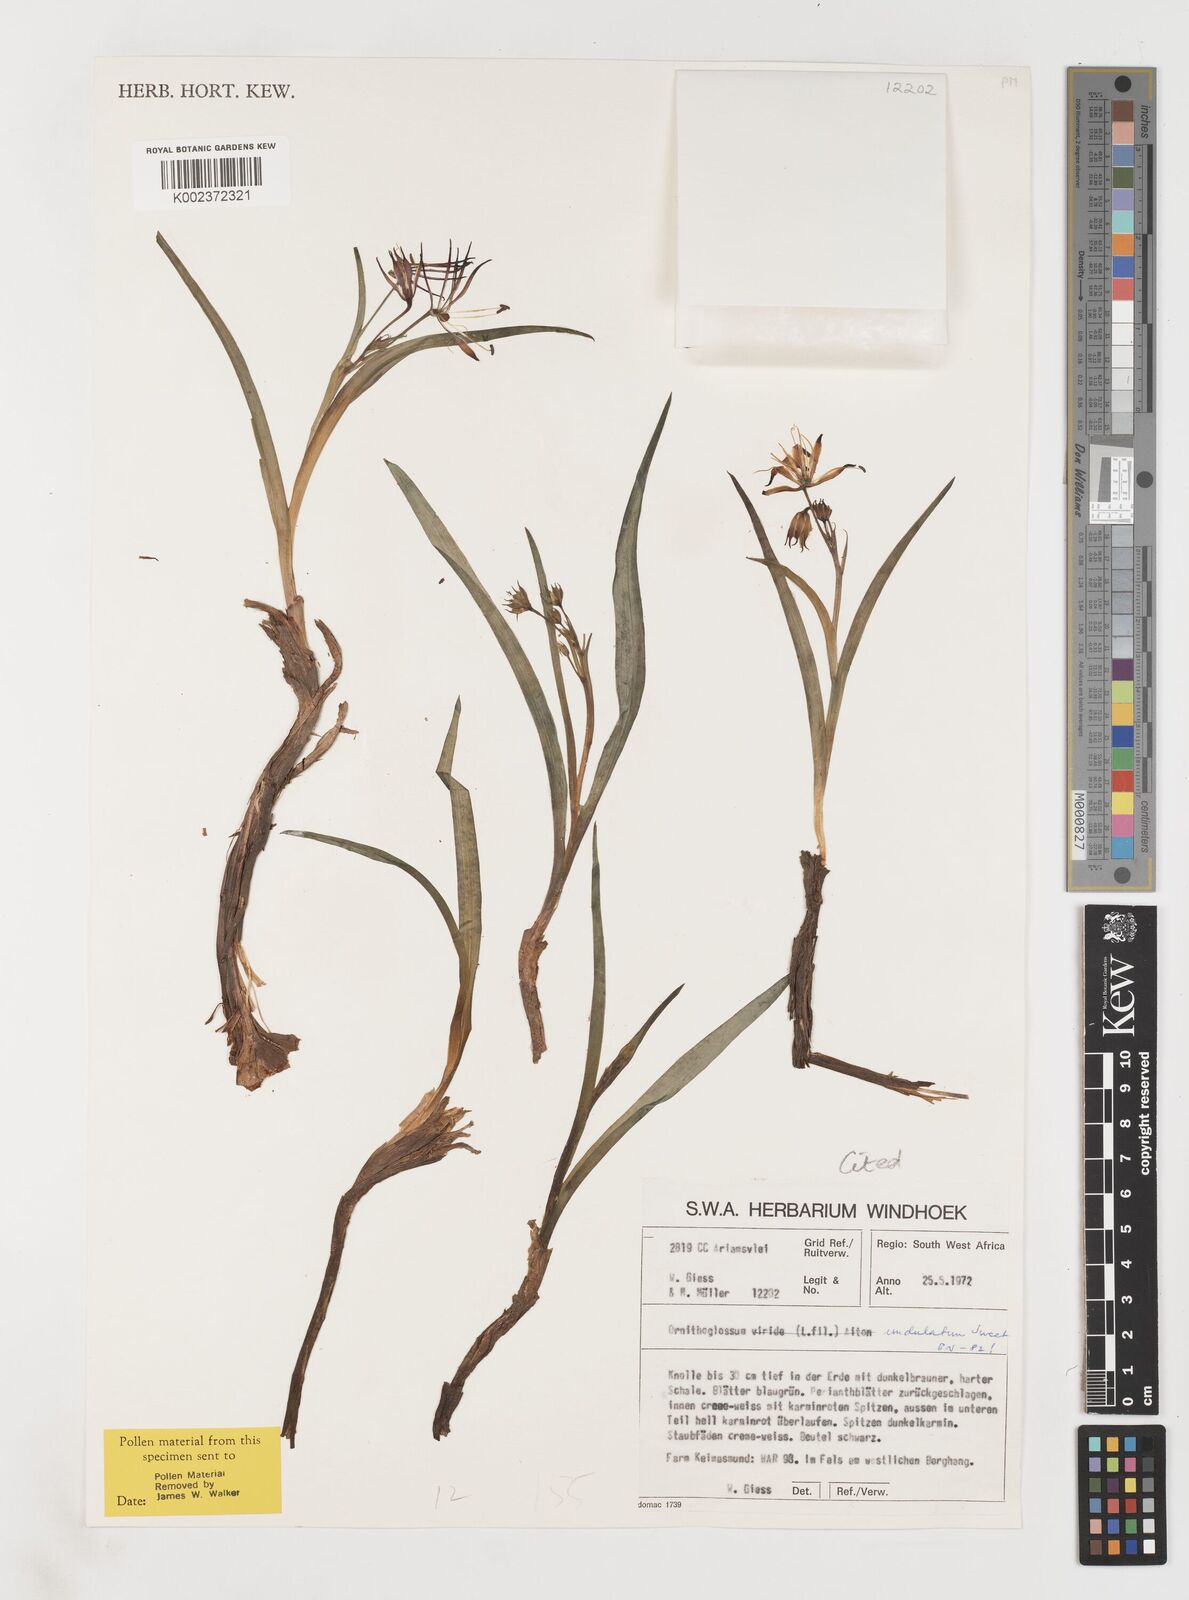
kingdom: Plantae
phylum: Tracheophyta
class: Liliopsida
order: Liliales
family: Colchicaceae
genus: Ornithoglossum
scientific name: Ornithoglossum undulatum
